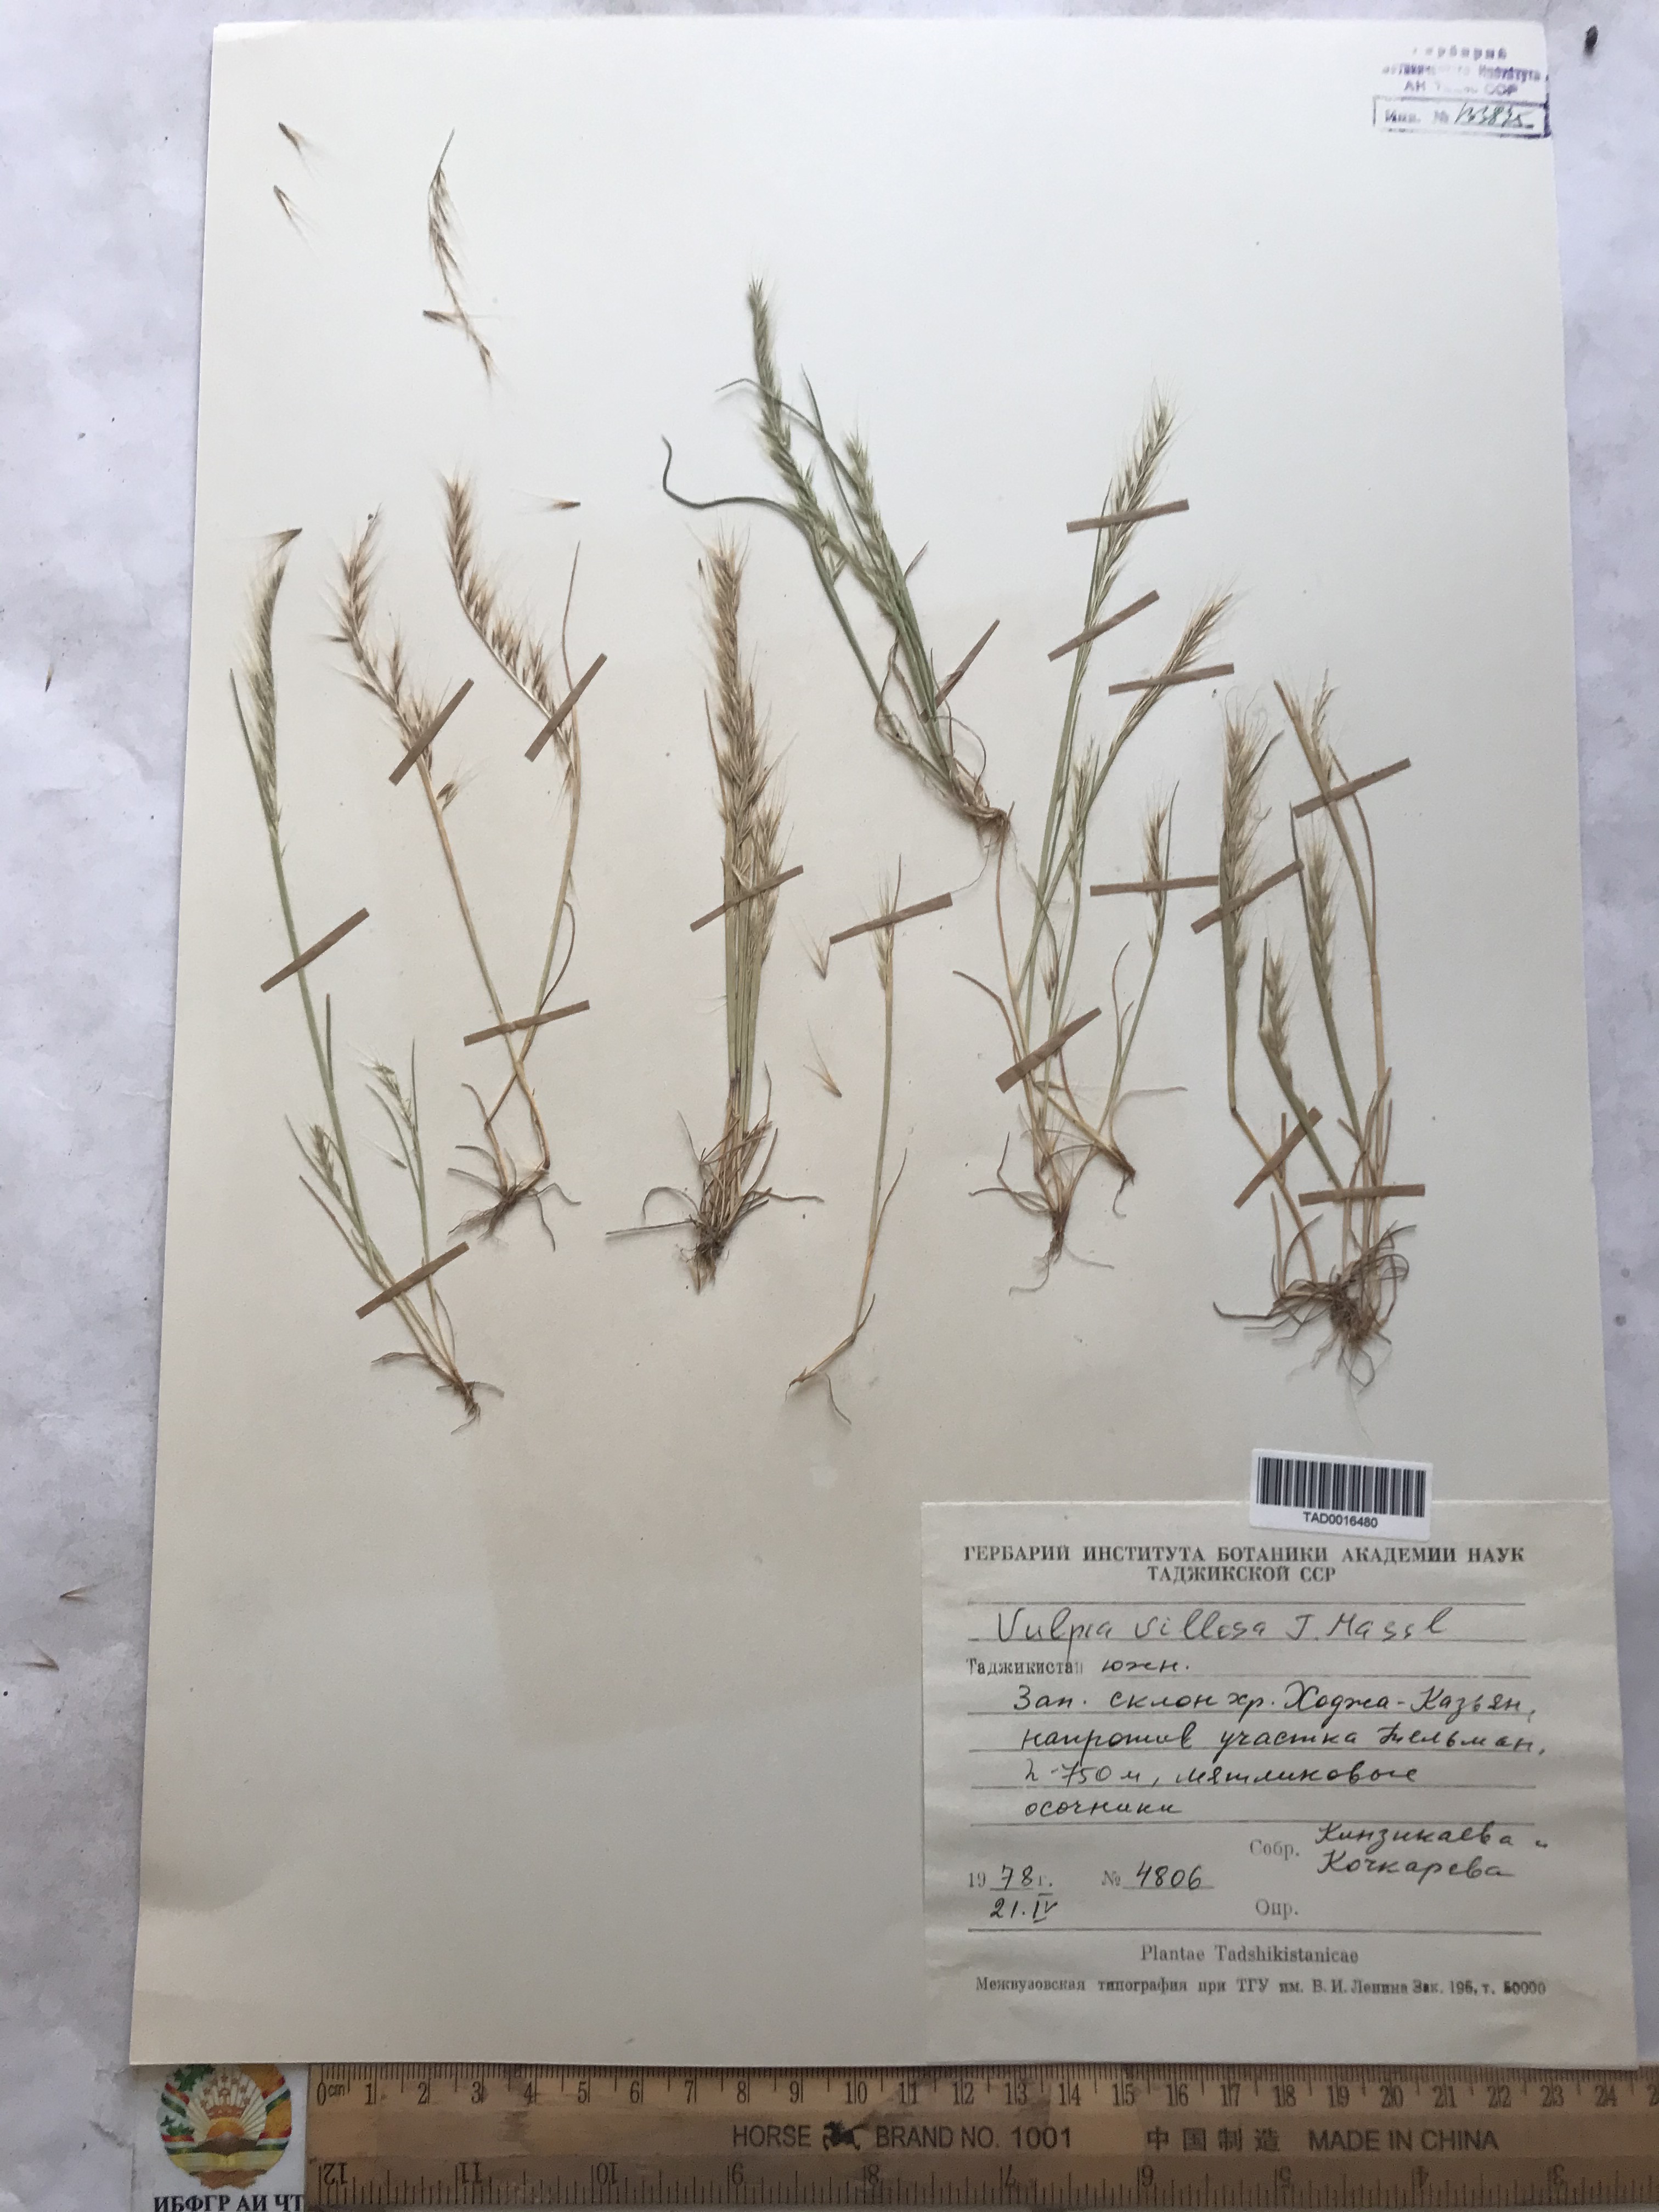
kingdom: Plantae
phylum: Tracheophyta
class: Liliopsida
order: Poales
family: Poaceae
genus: Festuca
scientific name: Festuca Vulpia persica
